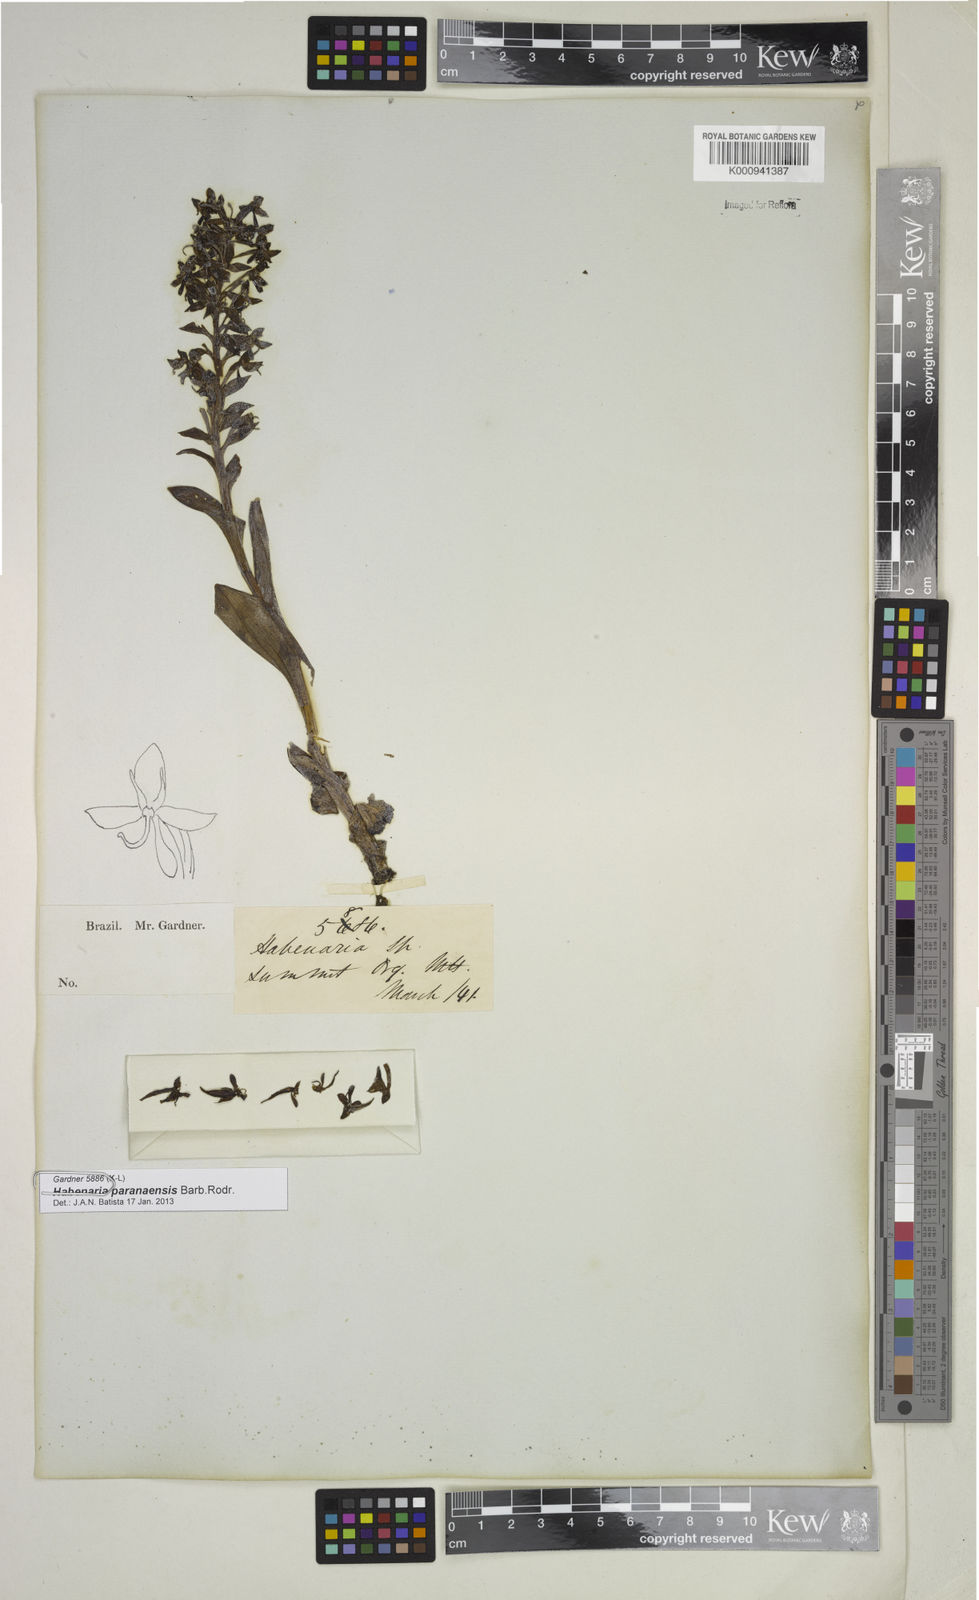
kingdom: Plantae
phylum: Tracheophyta
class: Liliopsida
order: Asparagales
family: Orchidaceae
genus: Habenaria
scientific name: Habenaria paranaensis
